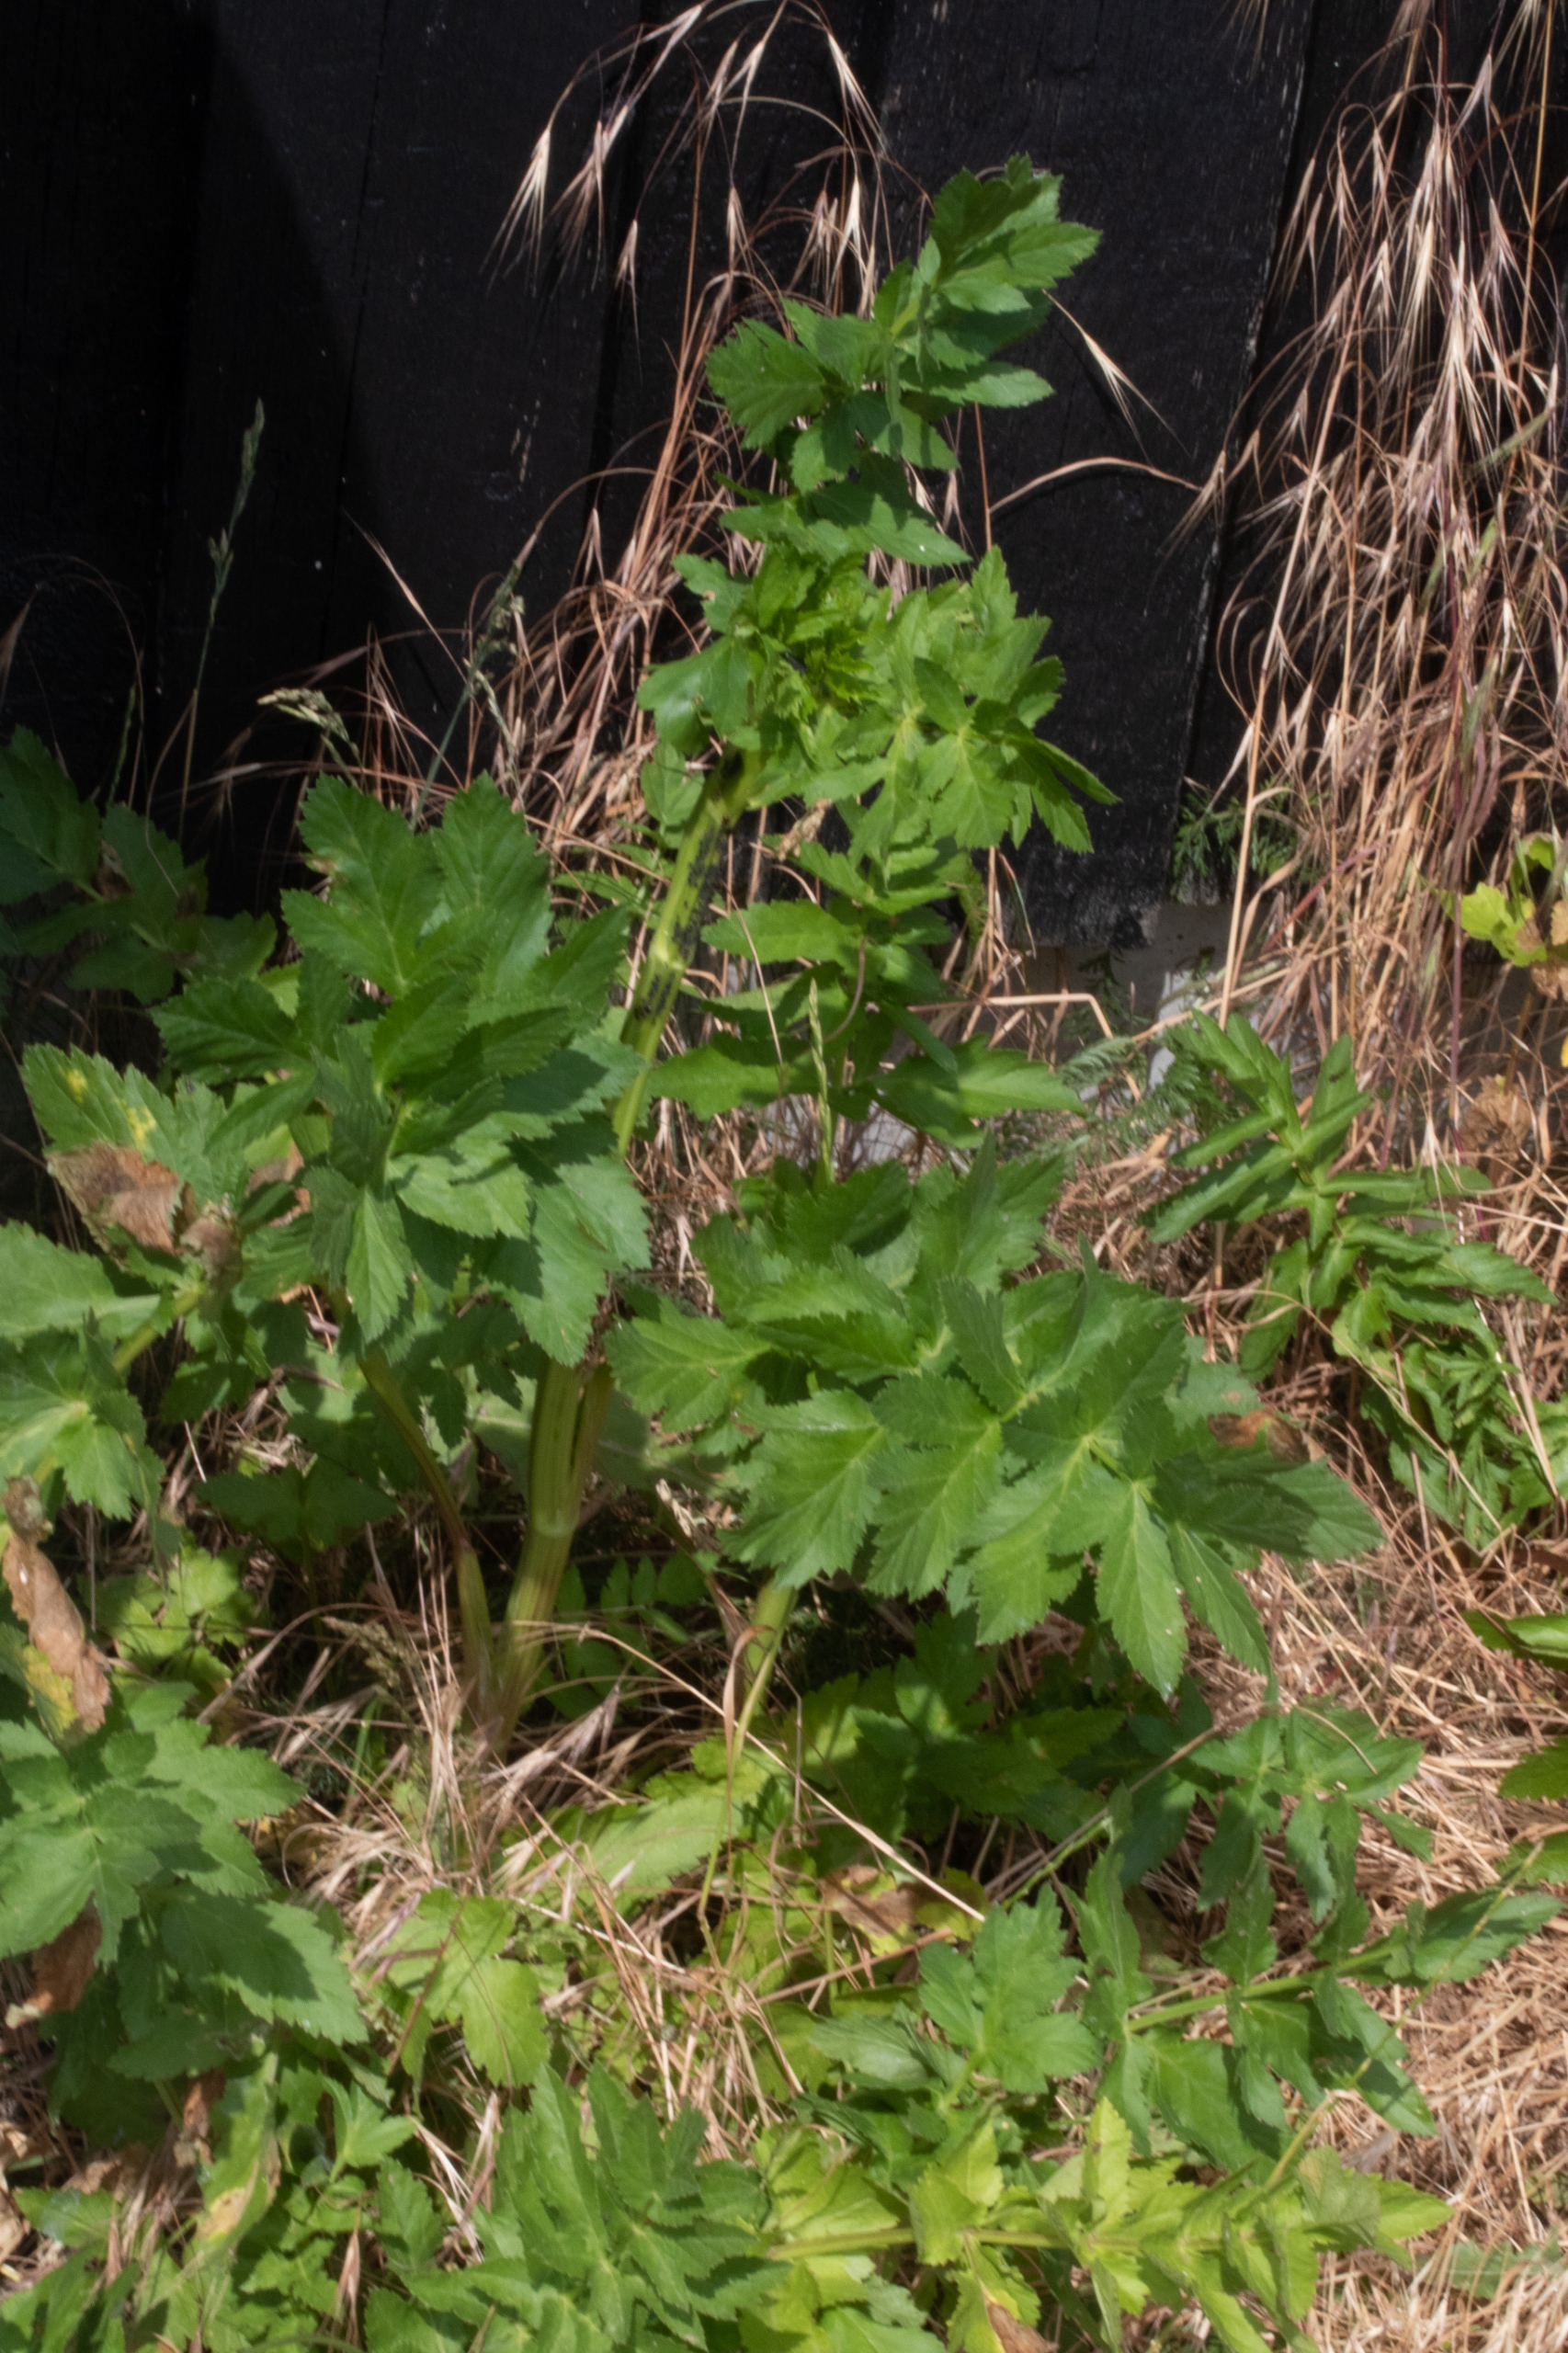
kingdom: Plantae
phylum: Tracheophyta
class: Magnoliopsida
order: Apiales
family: Apiaceae
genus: Pastinaca
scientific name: Pastinaca sativa
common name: Pastinak
